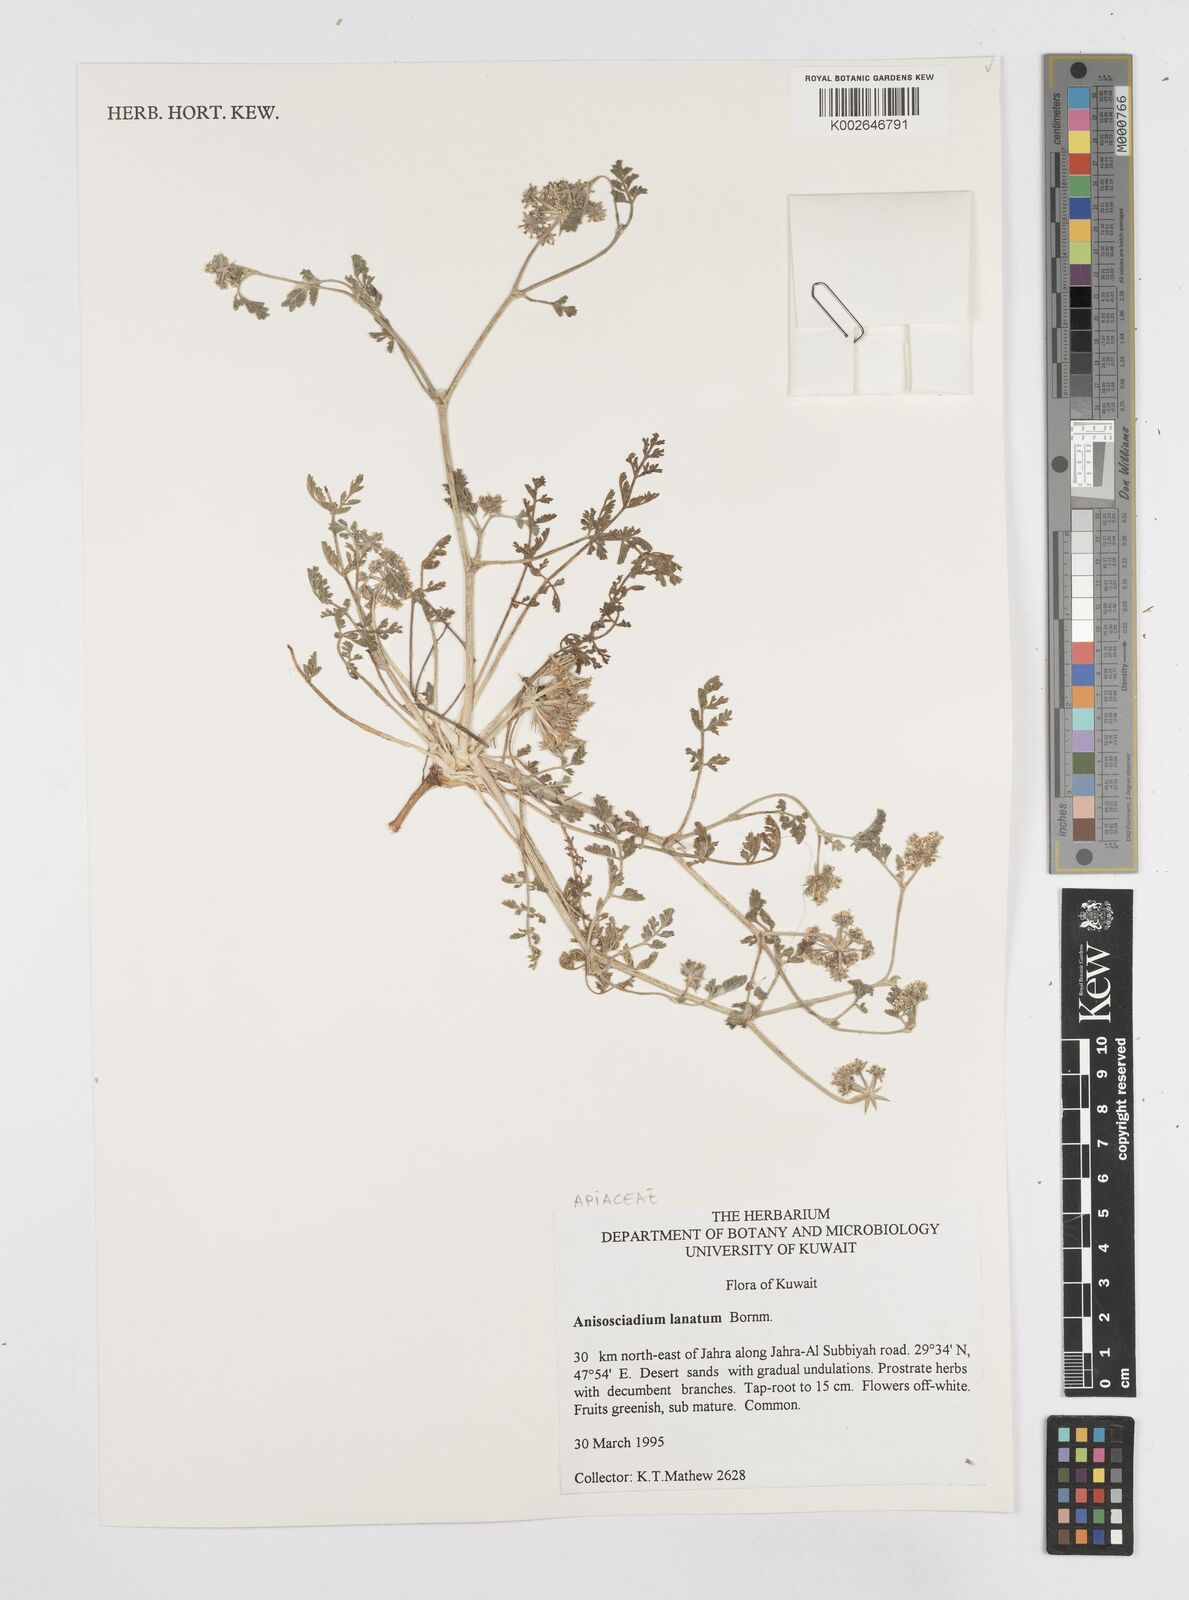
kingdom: Plantae
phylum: Tracheophyta
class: Magnoliopsida
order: Apiales
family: Apiaceae
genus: Anisosciadium
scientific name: Anisosciadium lanatum
